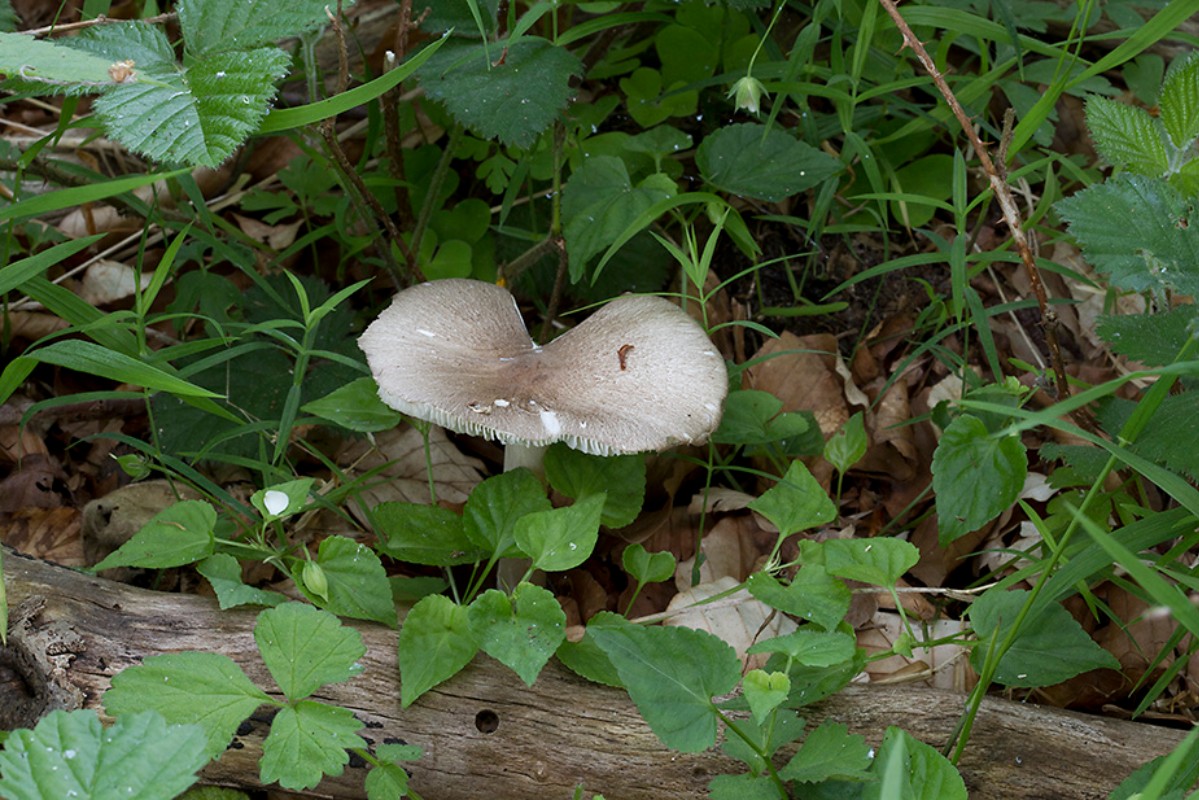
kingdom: Fungi
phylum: Basidiomycota
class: Agaricomycetes
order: Agaricales
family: Tricholomataceae
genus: Megacollybia
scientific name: Megacollybia platyphylla
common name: bredbladet væbnerhat
